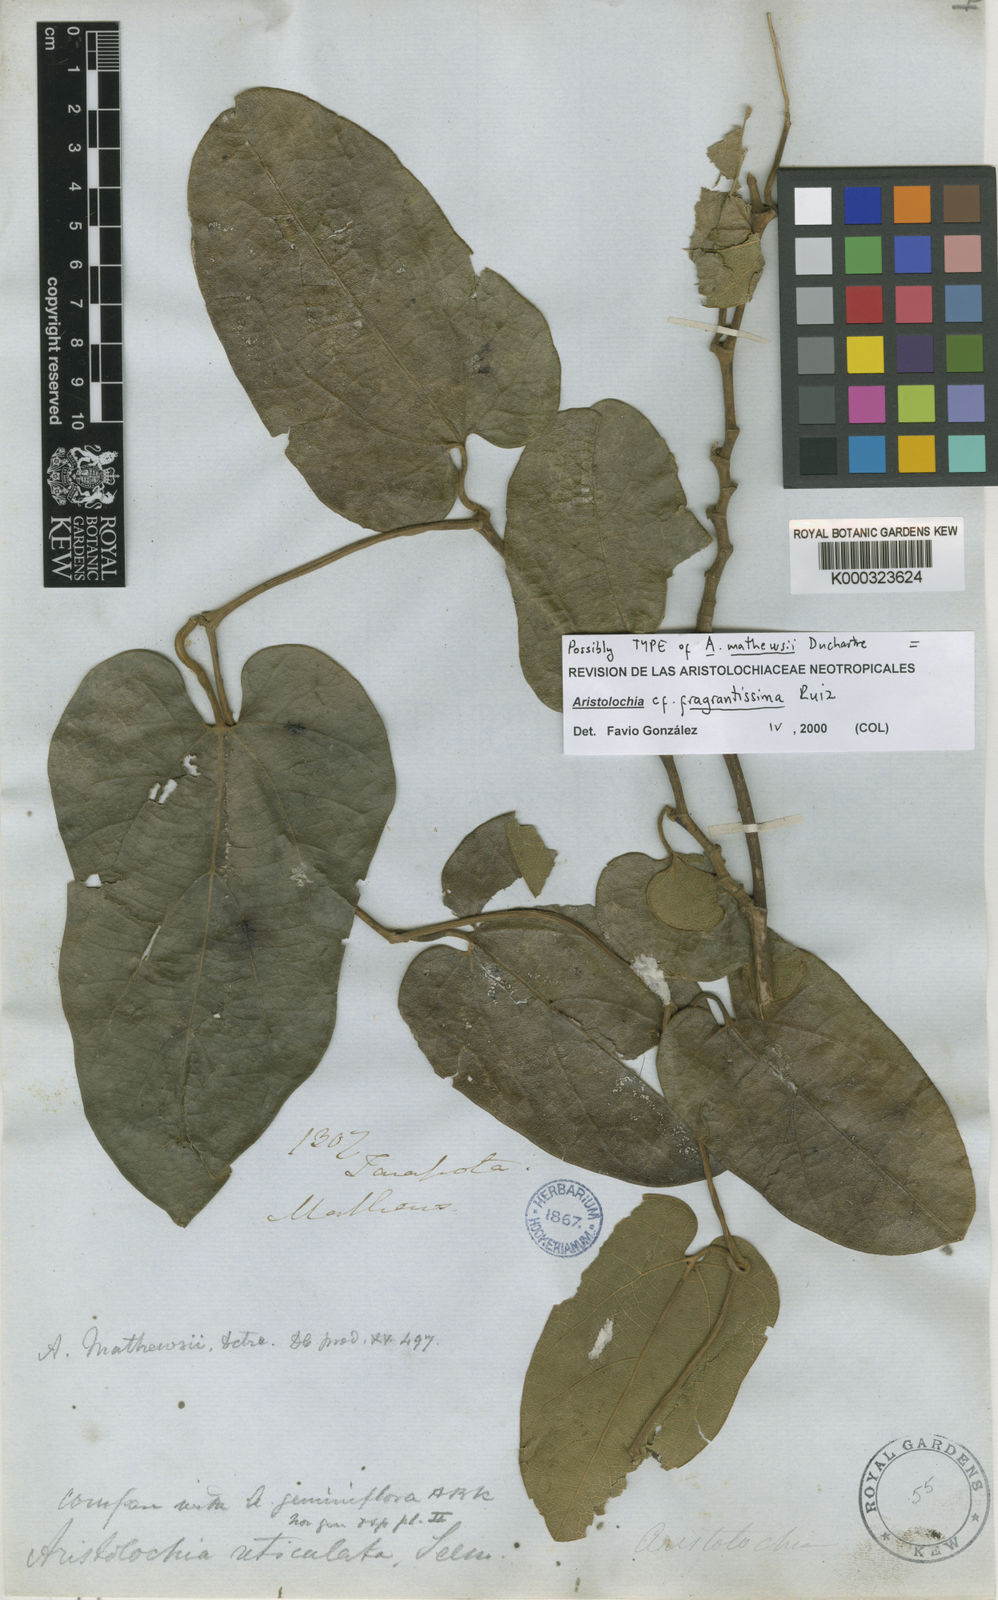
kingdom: Plantae
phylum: Tracheophyta
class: Magnoliopsida
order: Piperales
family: Aristolochiaceae
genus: Aristolochia
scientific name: Aristolochia mathewsii
